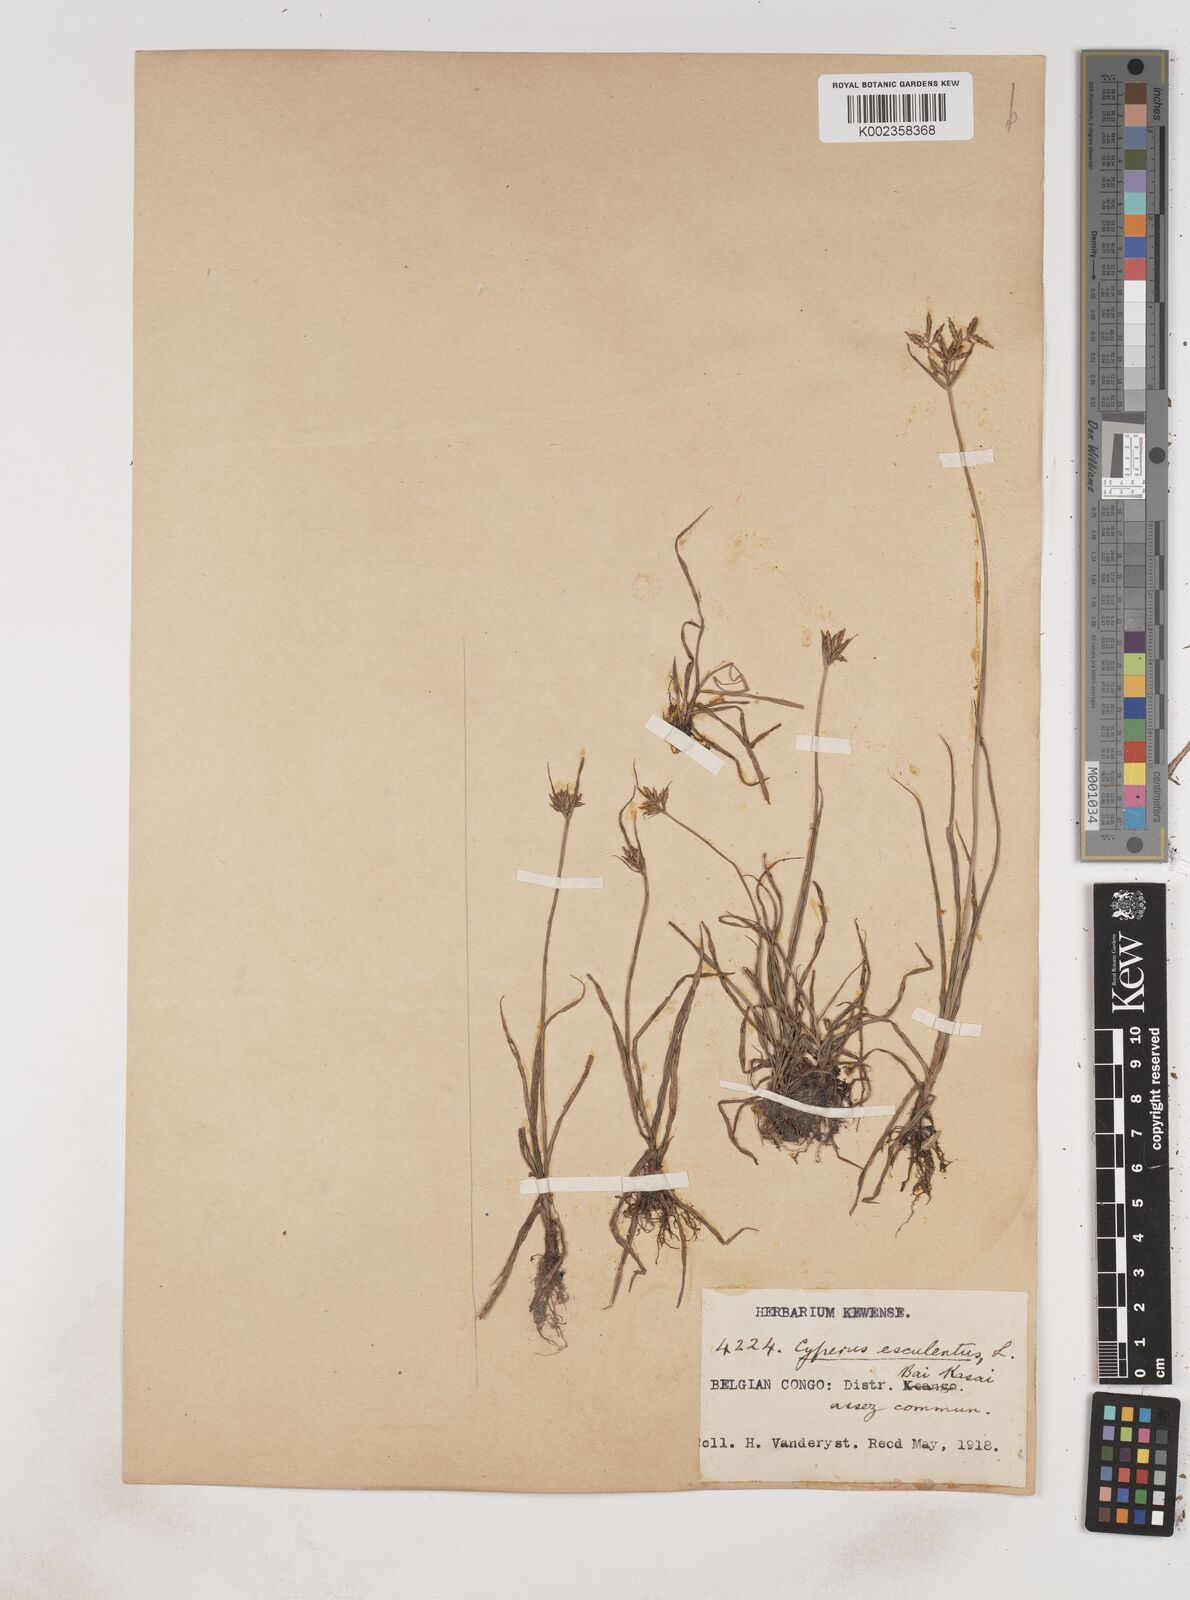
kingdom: Plantae
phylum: Tracheophyta
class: Liliopsida
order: Poales
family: Cyperaceae
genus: Cyperus
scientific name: Cyperus esculentus
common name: Yellow nutsedge
